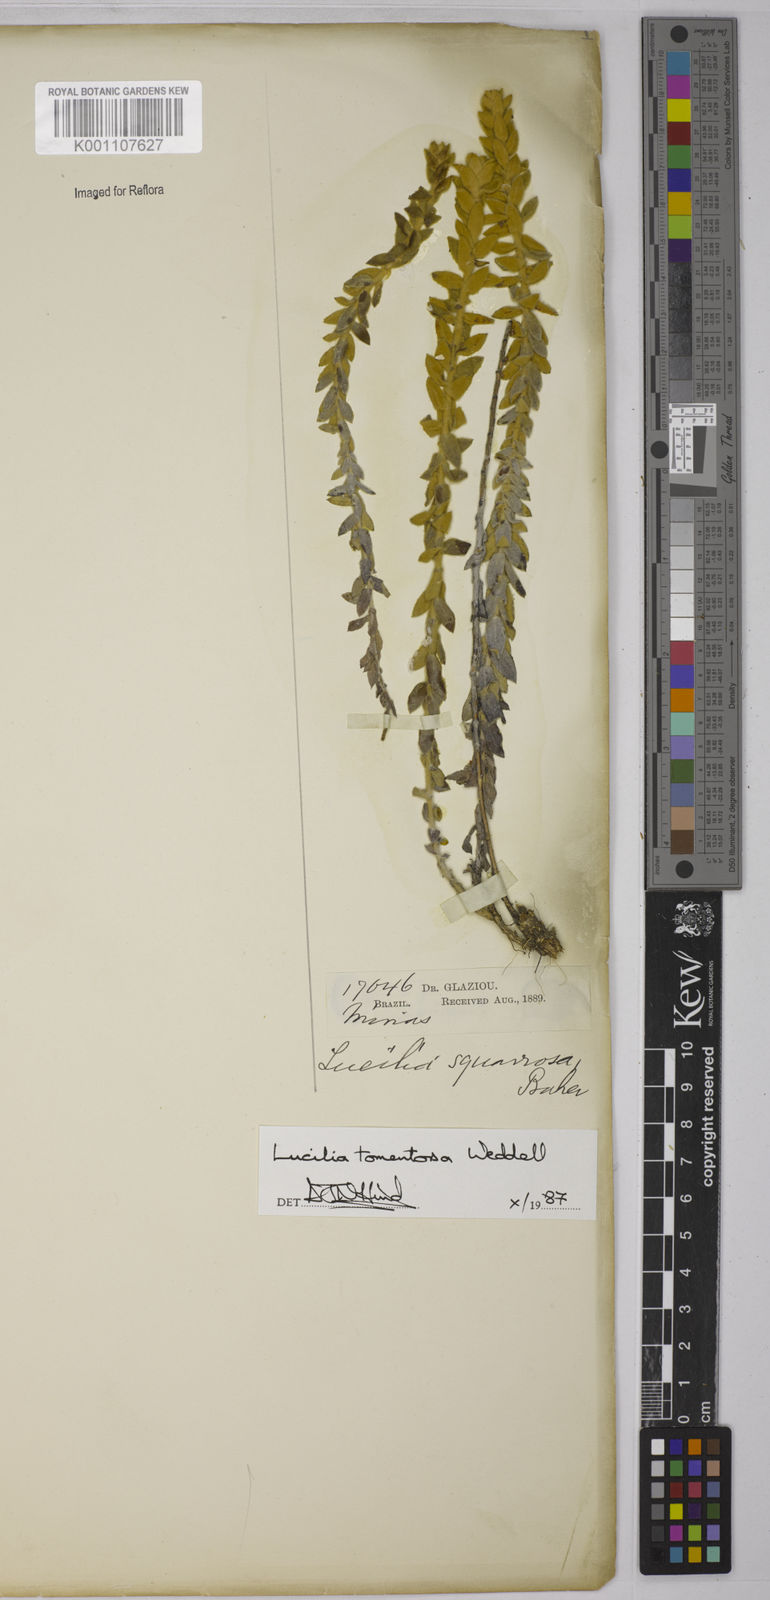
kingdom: Plantae
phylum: Tracheophyta
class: Magnoliopsida
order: Asterales
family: Asteraceae
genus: Lucilia
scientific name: Lucilia tomentosa
